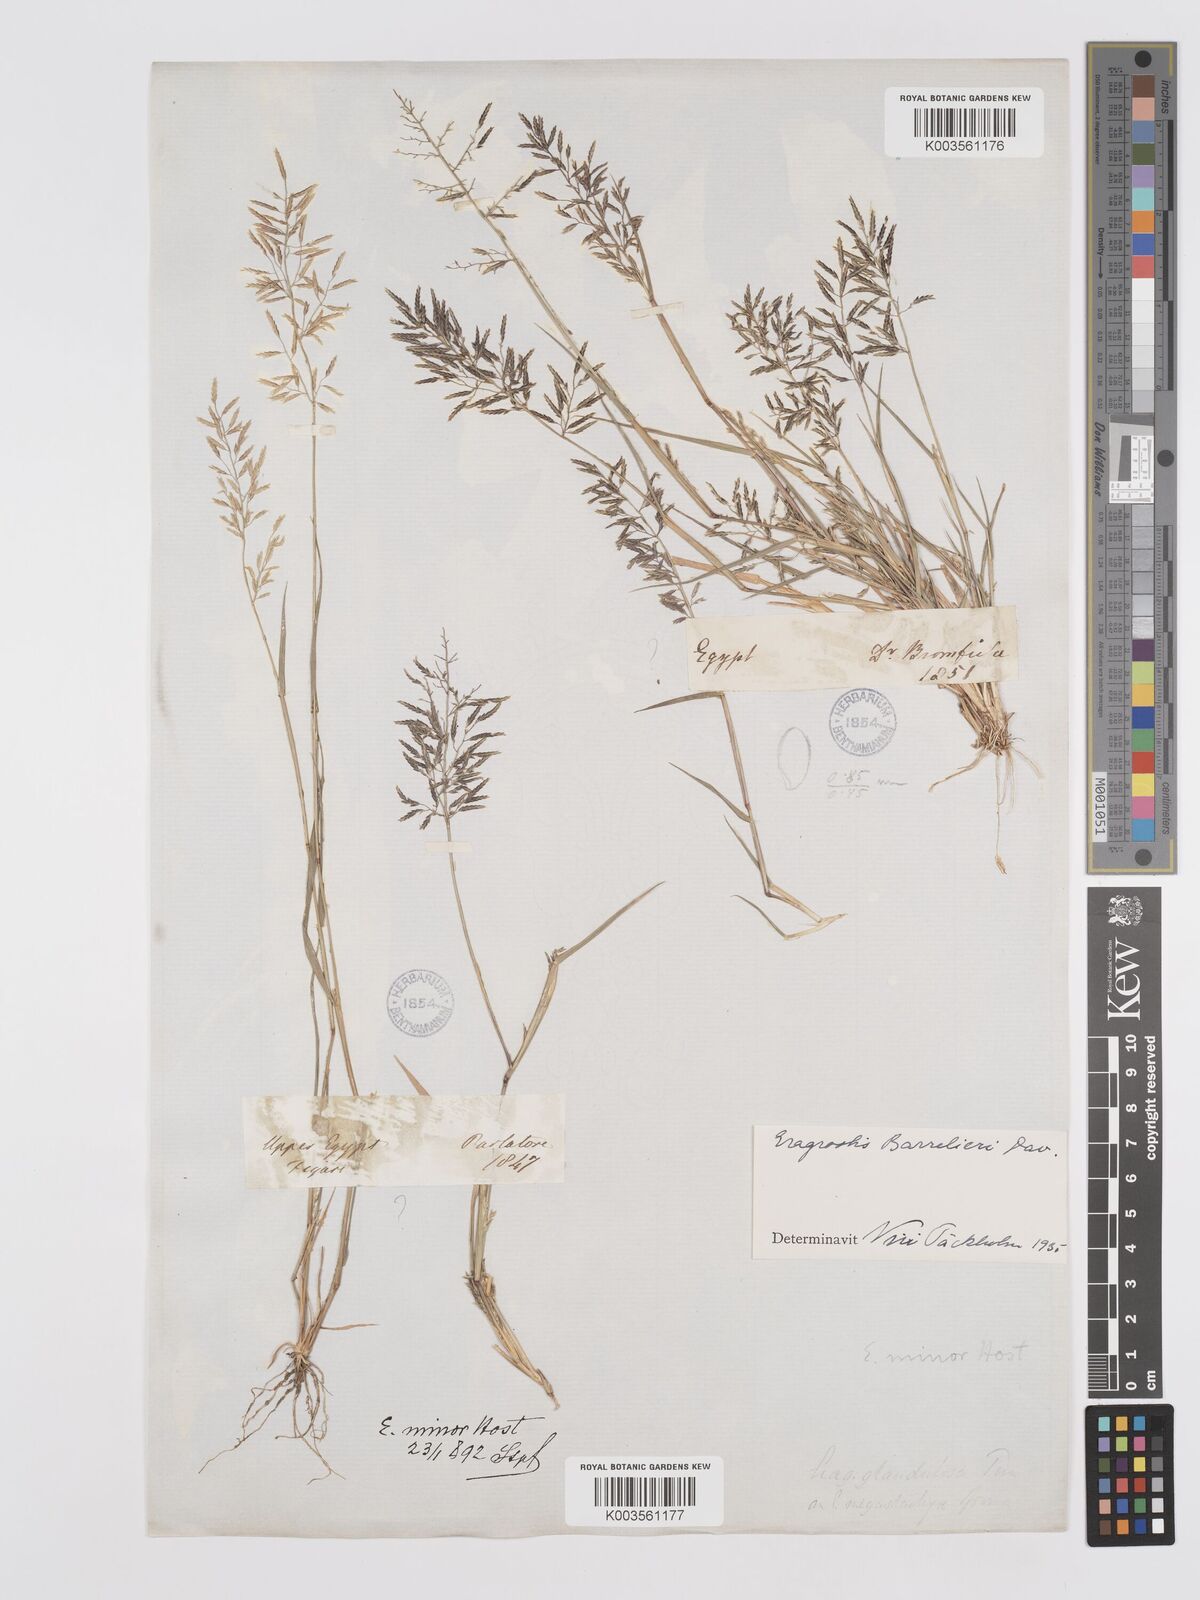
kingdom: Plantae
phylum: Tracheophyta
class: Liliopsida
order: Poales
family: Poaceae
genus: Eragrostis
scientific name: Eragrostis barrelieri
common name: Mediterranean lovegrass
